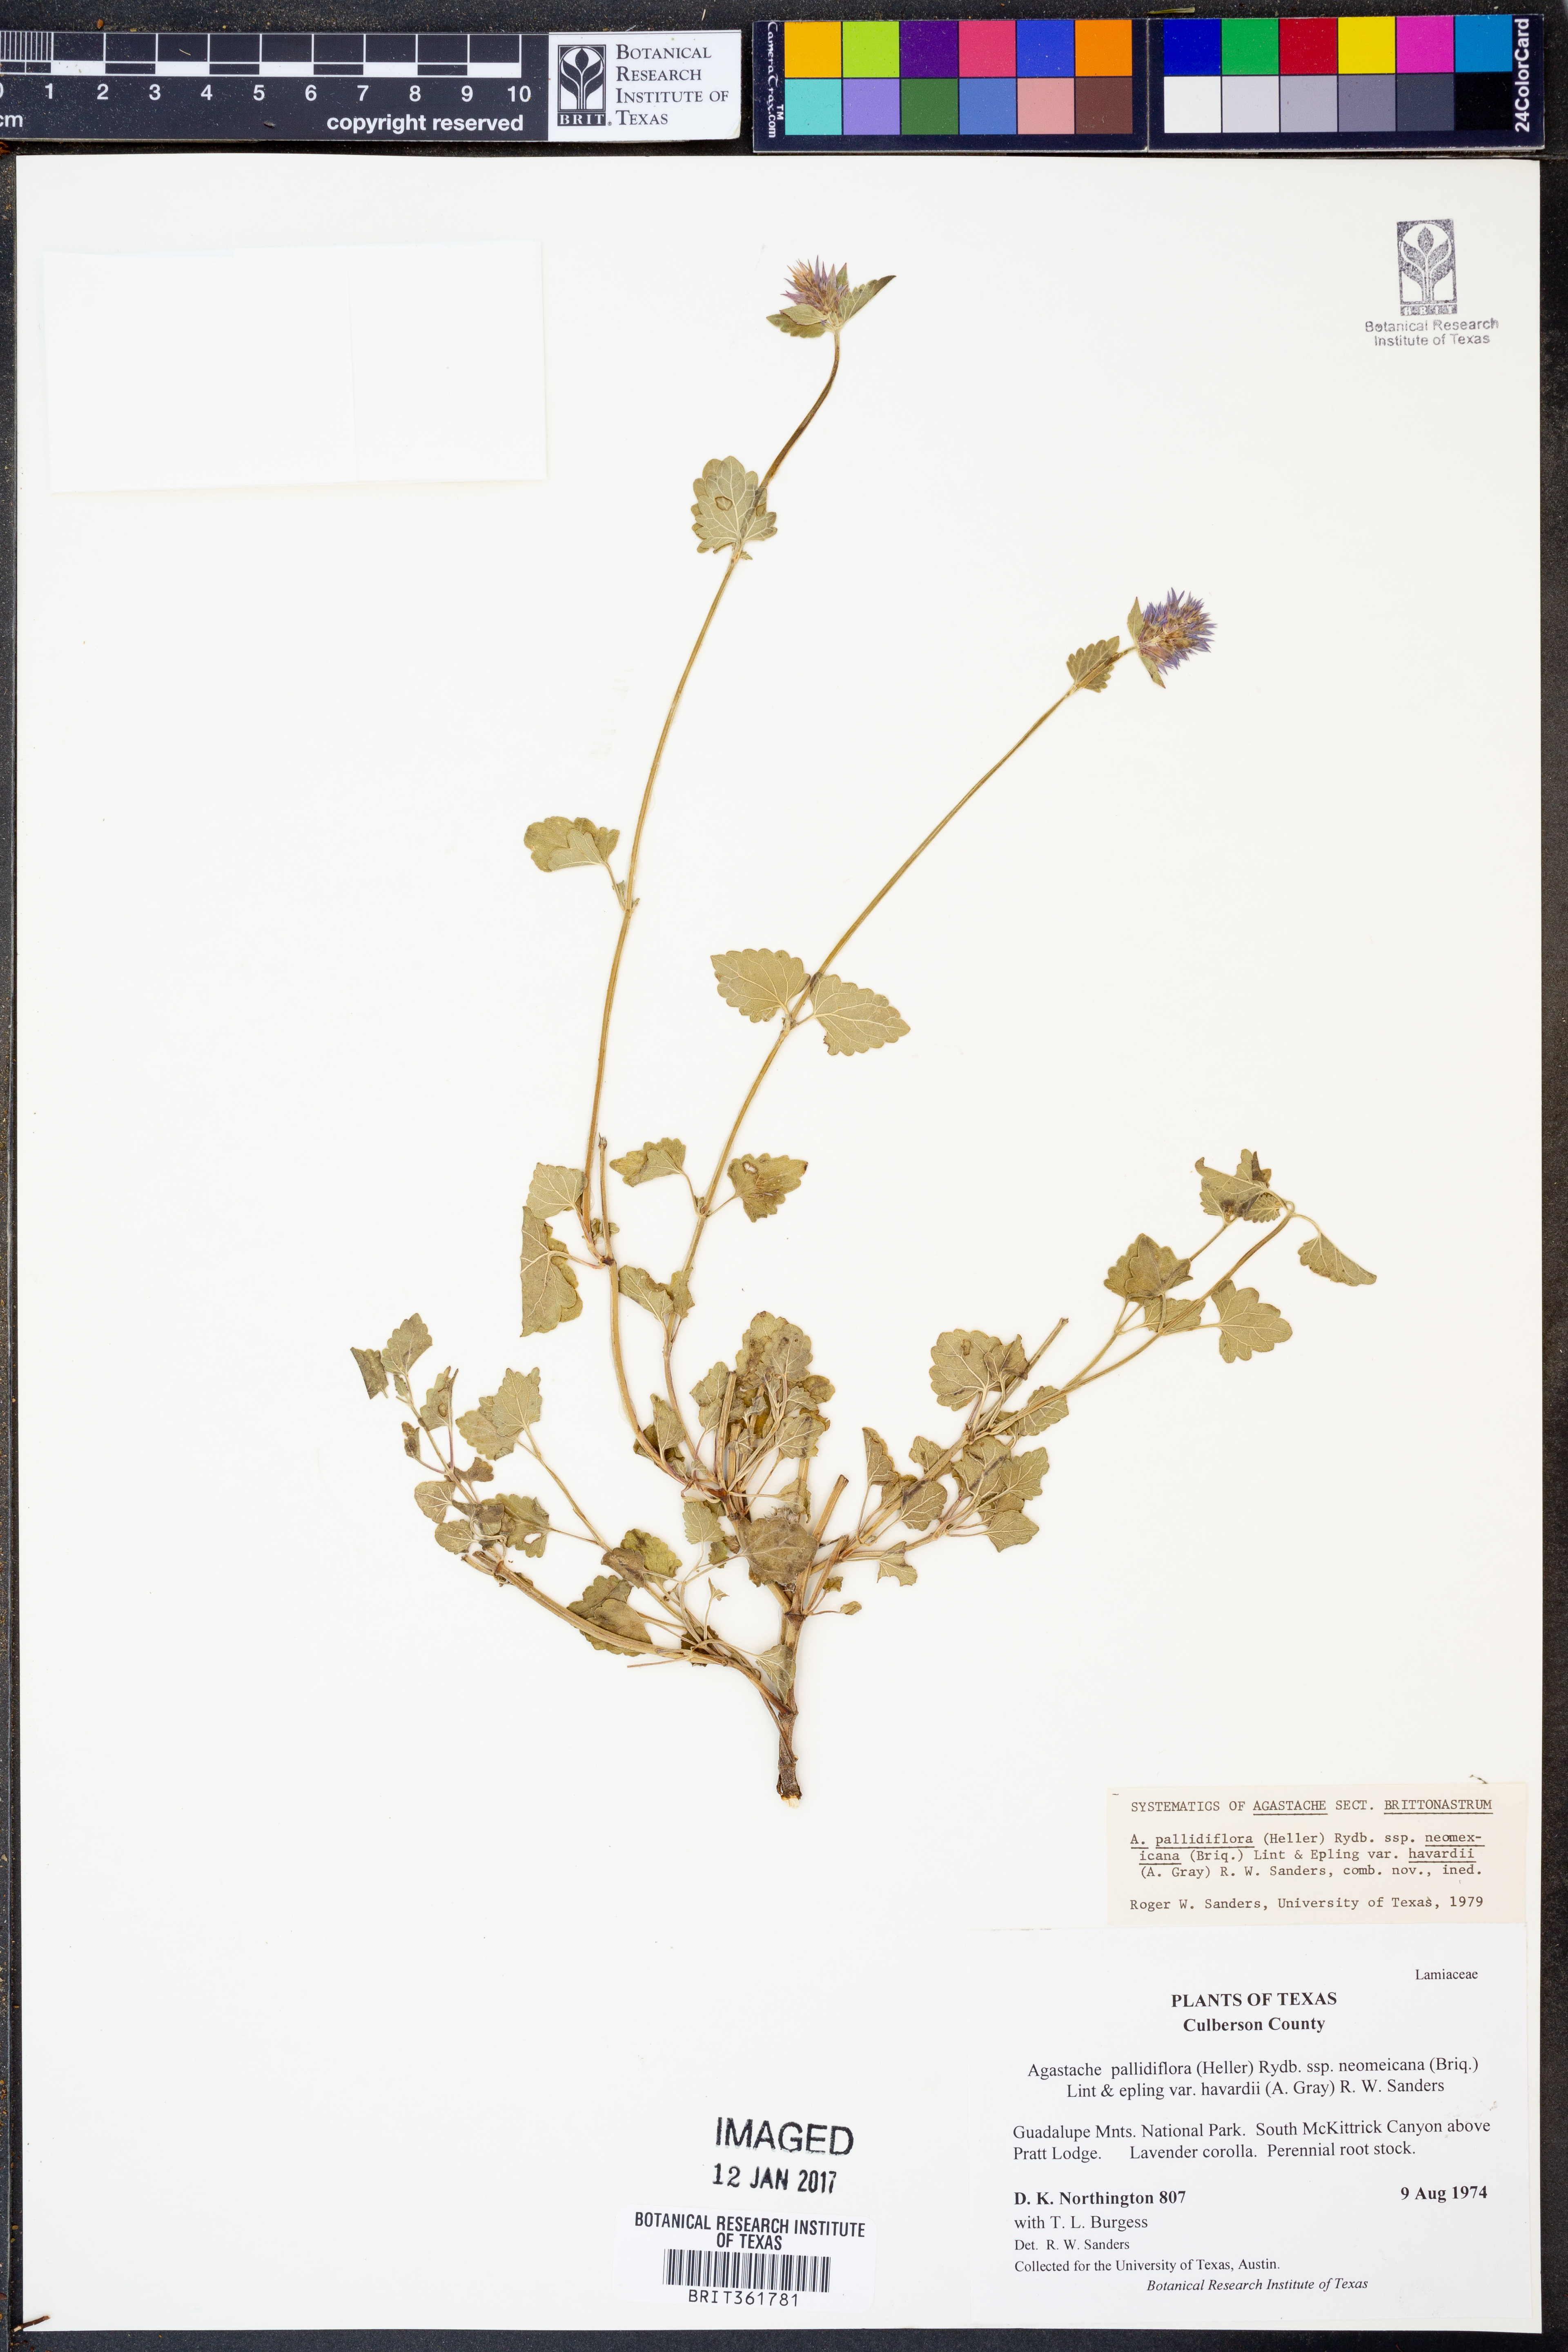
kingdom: Plantae
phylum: Tracheophyta
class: Magnoliopsida
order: Lamiales
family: Lamiaceae
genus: Agastache
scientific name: Agastache pallidiflora
